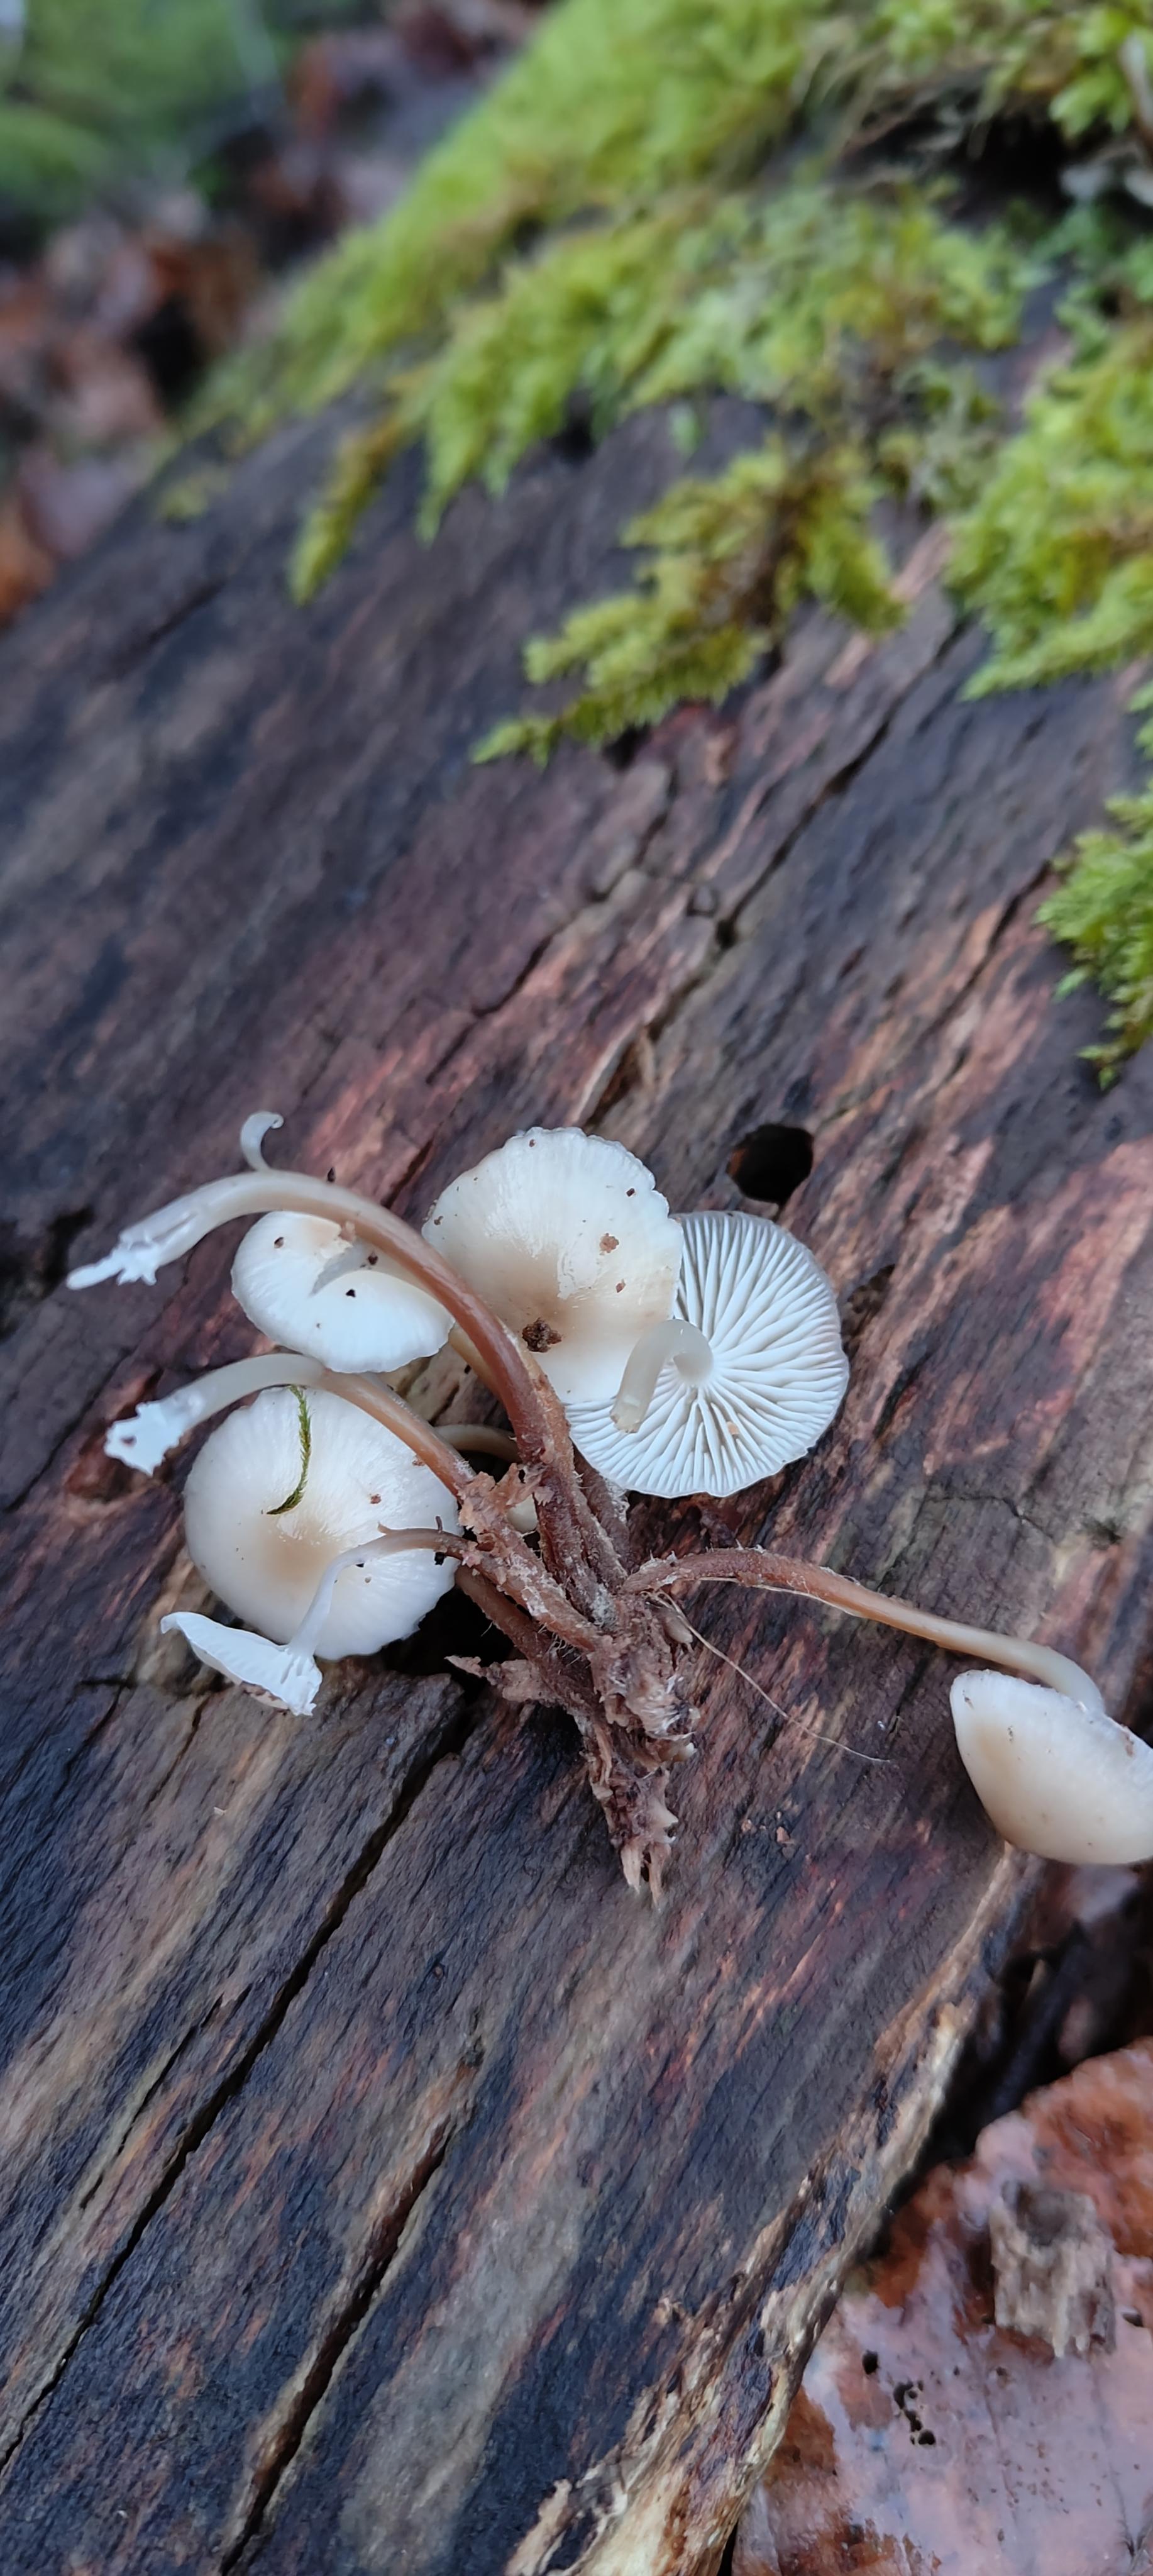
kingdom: Fungi
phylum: Basidiomycota
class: Agaricomycetes
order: Agaricales
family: Mycenaceae
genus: Mycena
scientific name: Mycena tintinnabulum
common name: vinter-huesvamp
